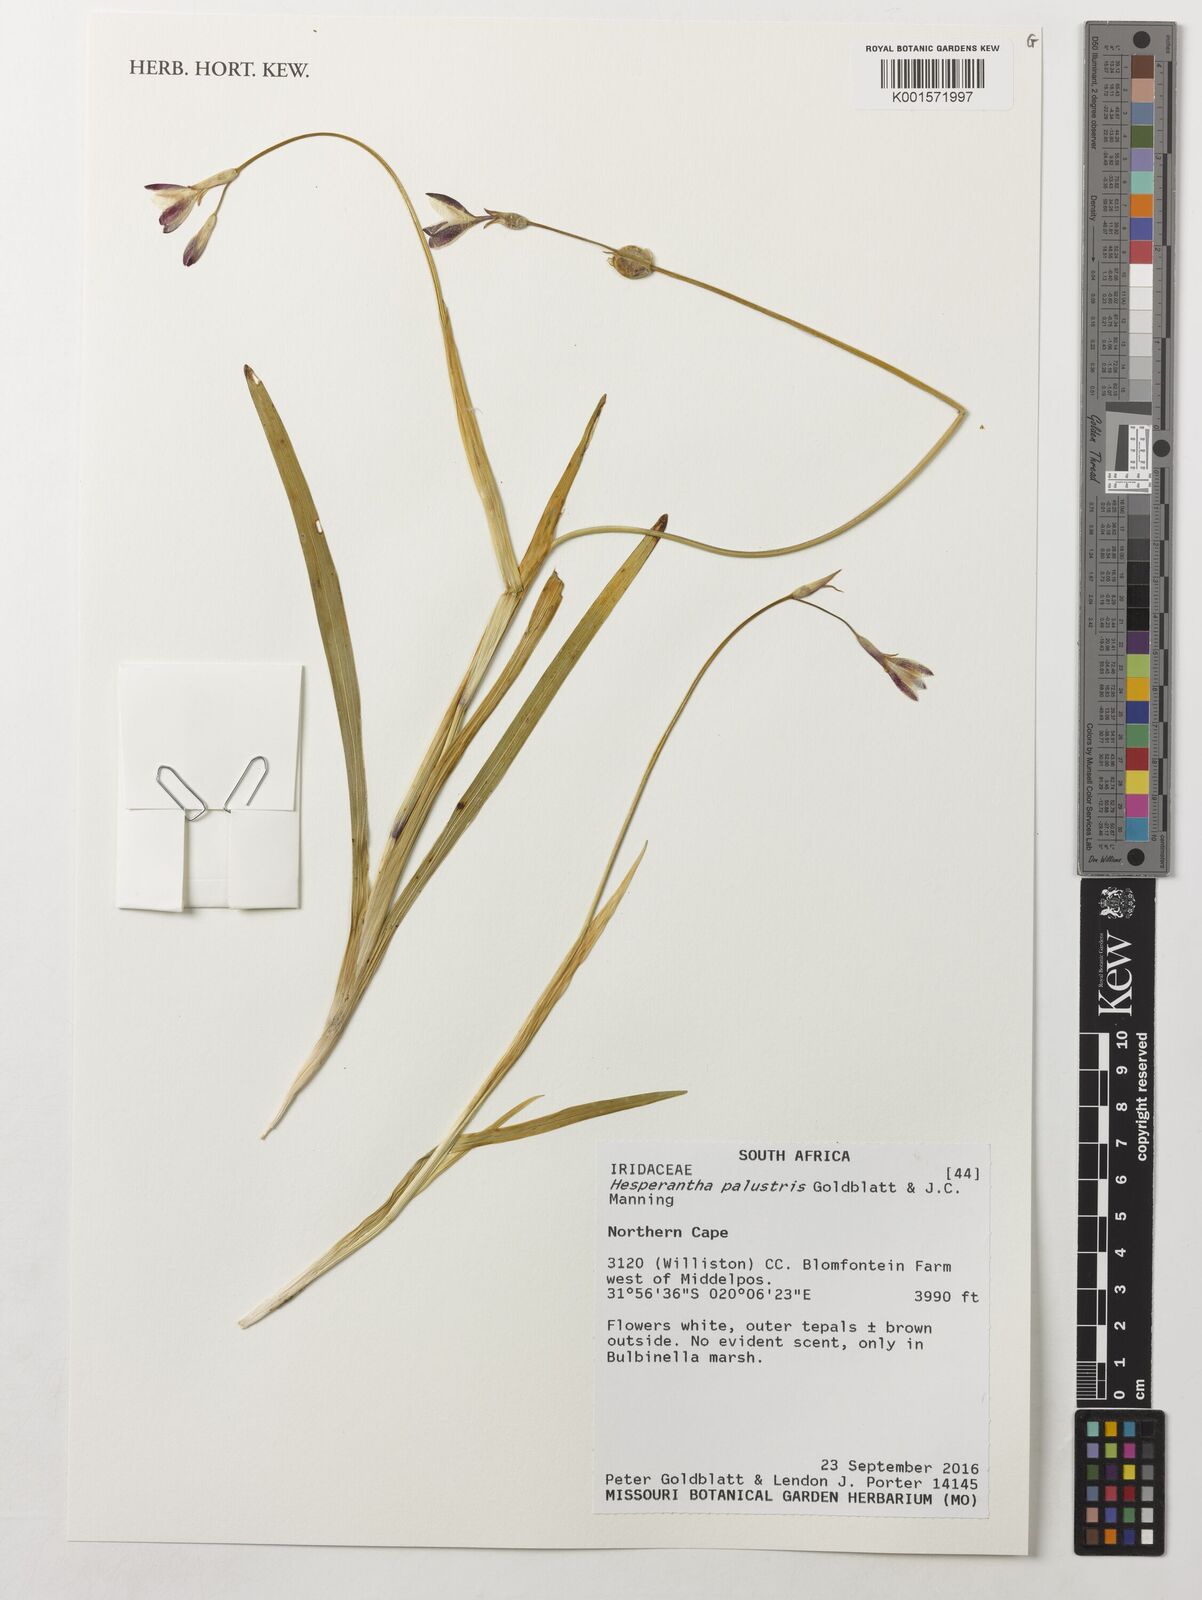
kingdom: Plantae
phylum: Tracheophyta
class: Liliopsida
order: Asparagales
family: Iridaceae
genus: Hesperantha
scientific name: Hesperantha palustris
